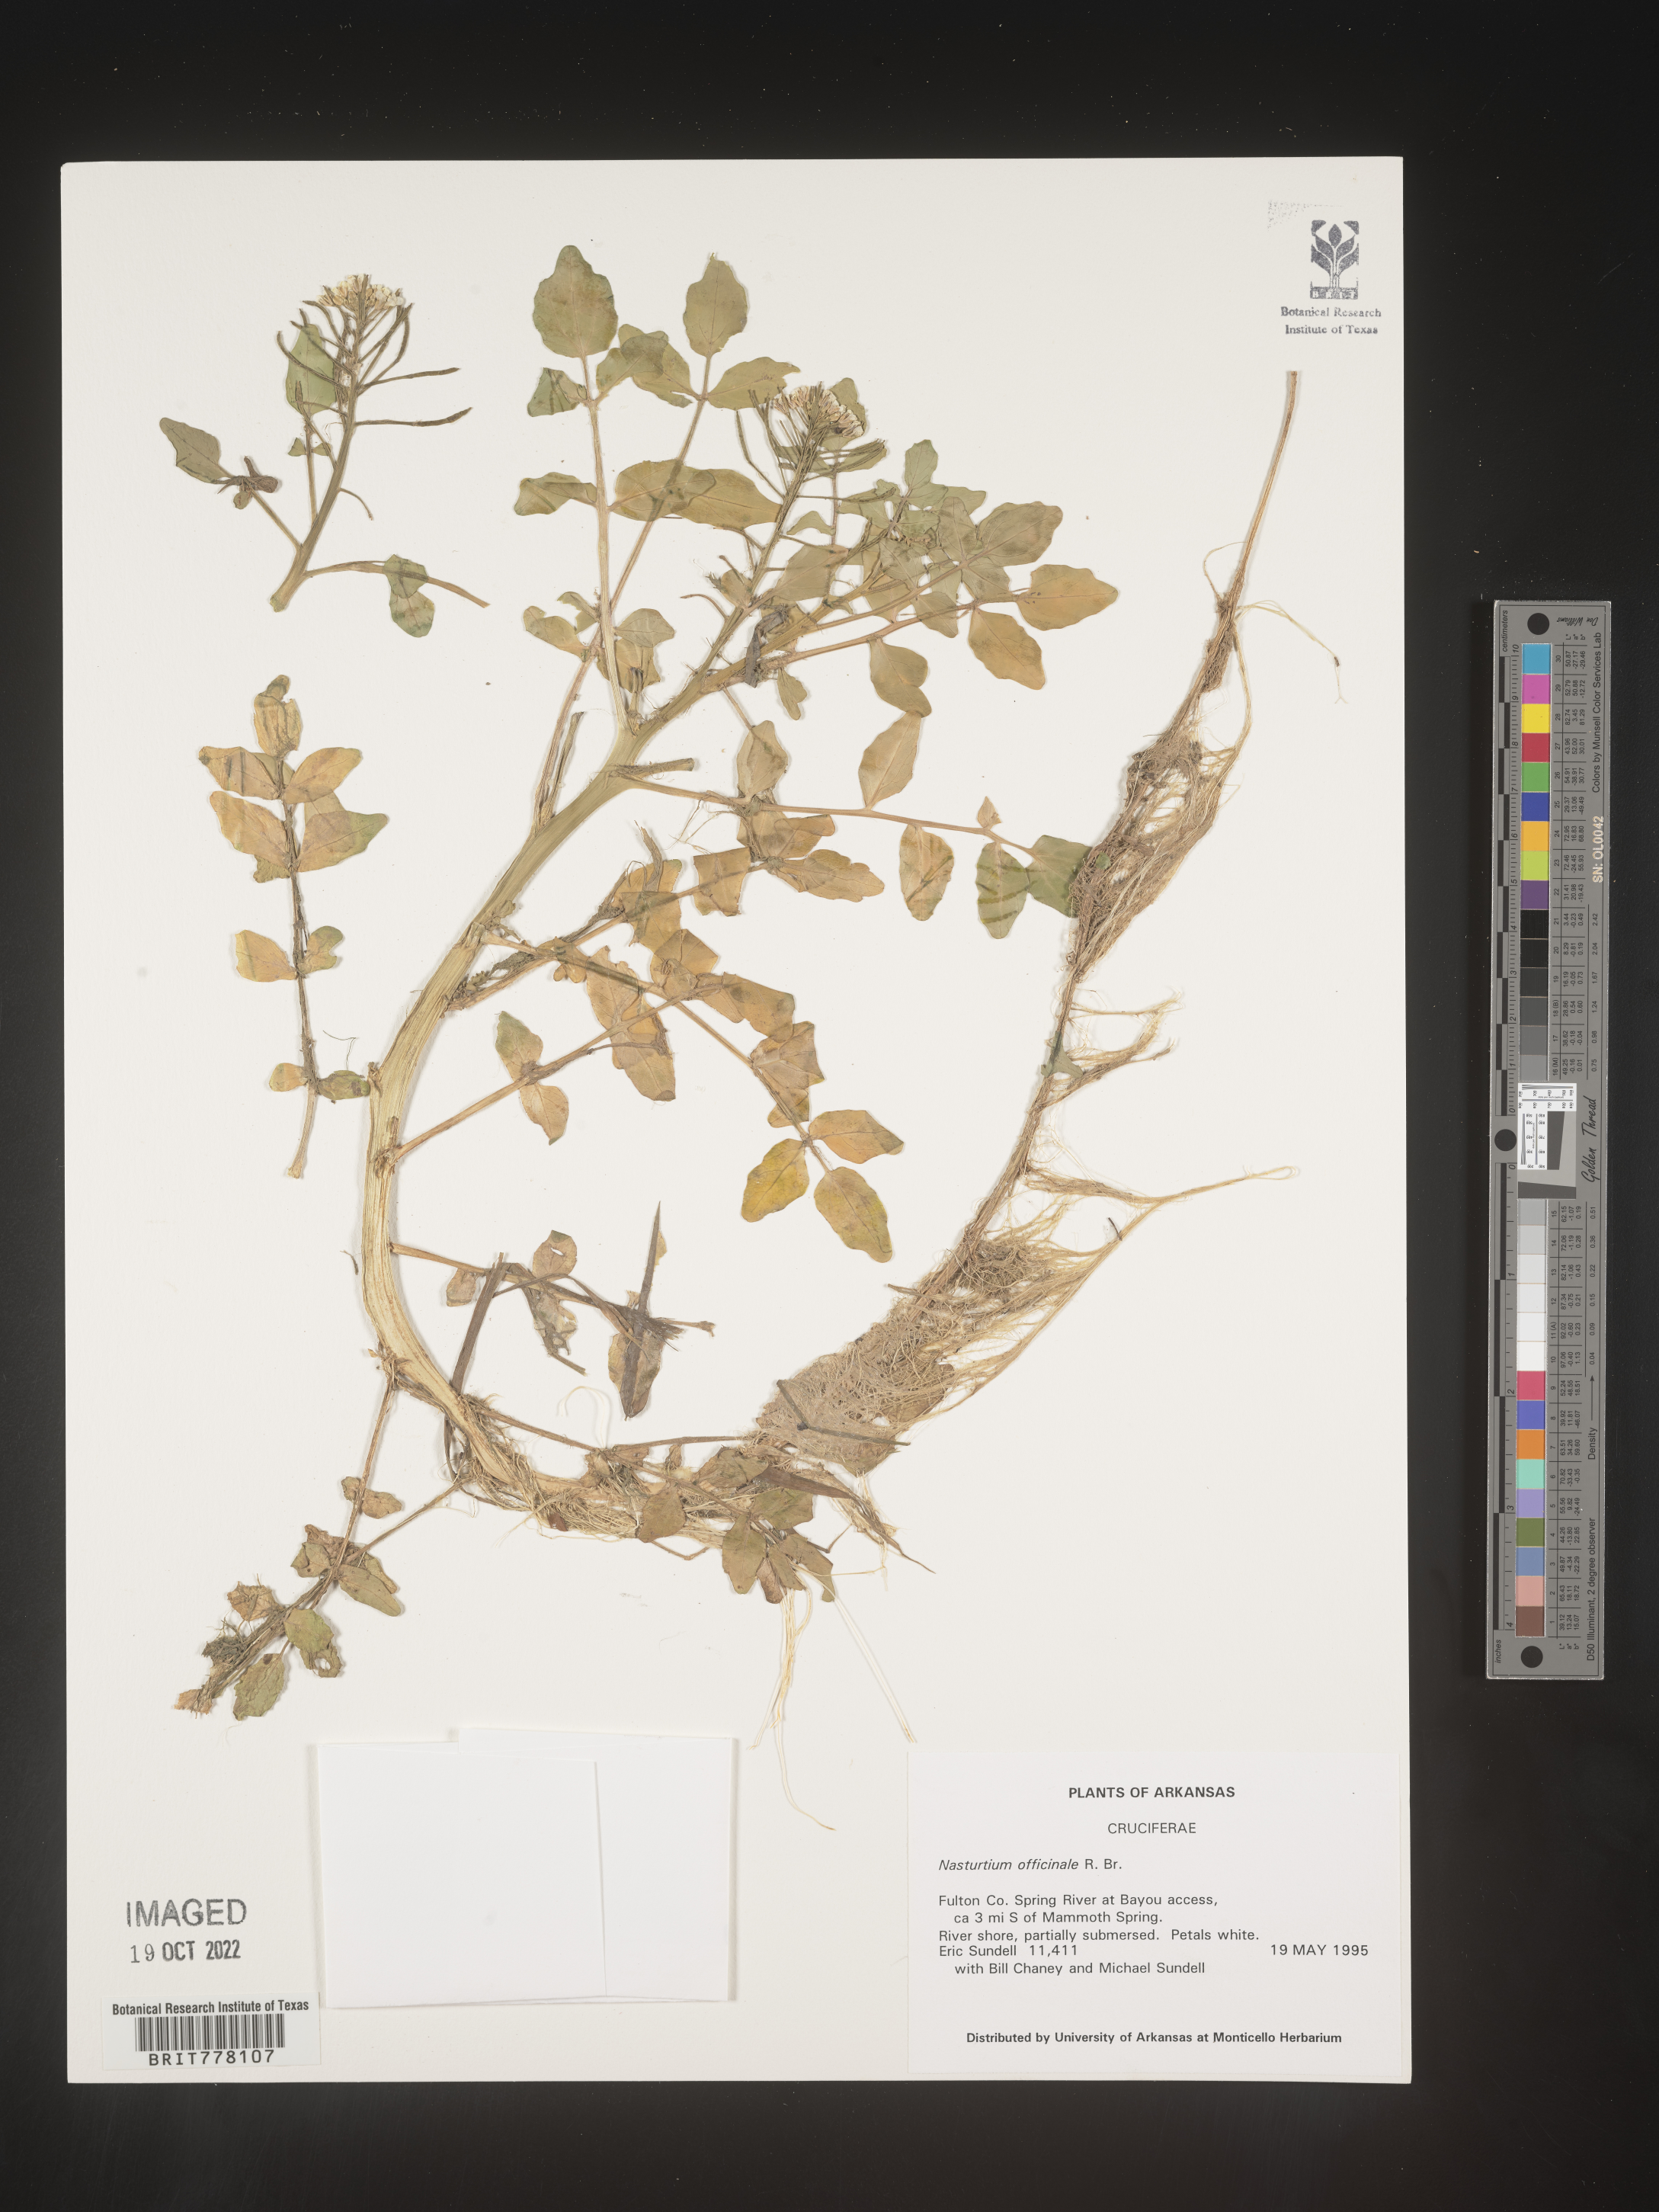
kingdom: Plantae
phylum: Tracheophyta
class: Magnoliopsida
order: Brassicales
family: Brassicaceae
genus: Nasturtium
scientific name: Nasturtium
